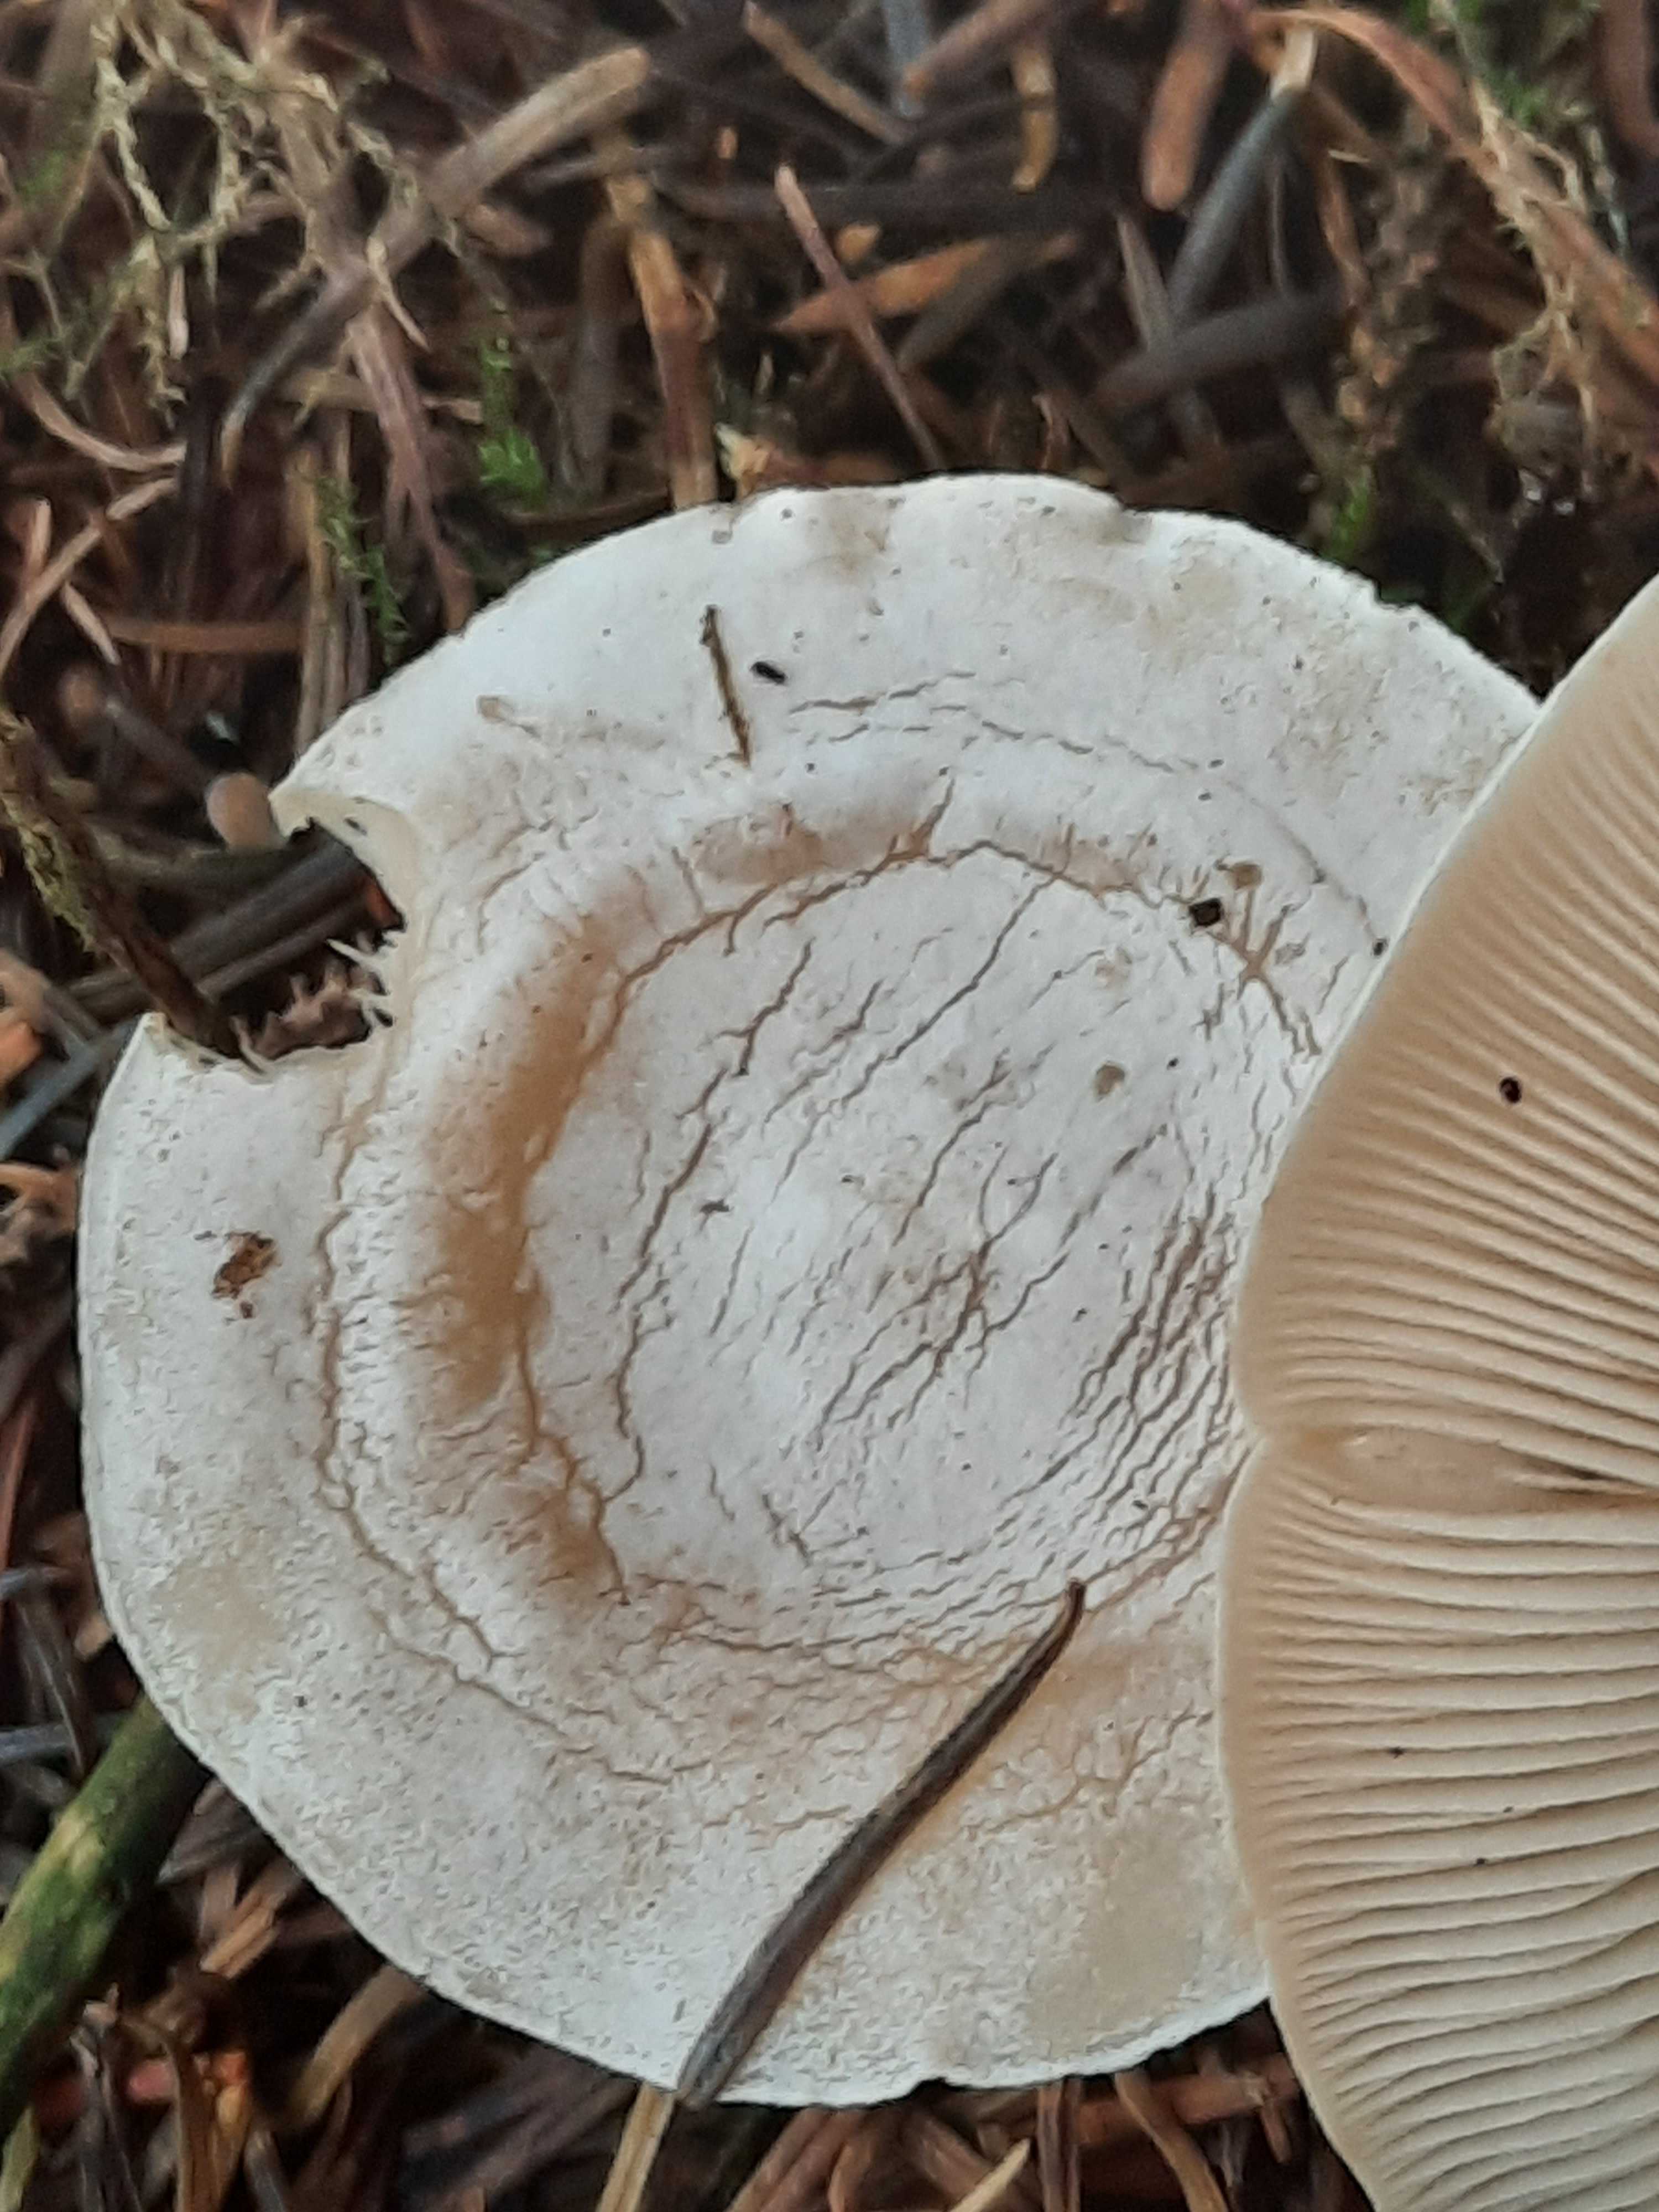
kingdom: Fungi
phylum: Basidiomycota
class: Agaricomycetes
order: Agaricales
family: Tricholomataceae
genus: Clitocybe
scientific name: Clitocybe phyllophila
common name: løv-tragthat
